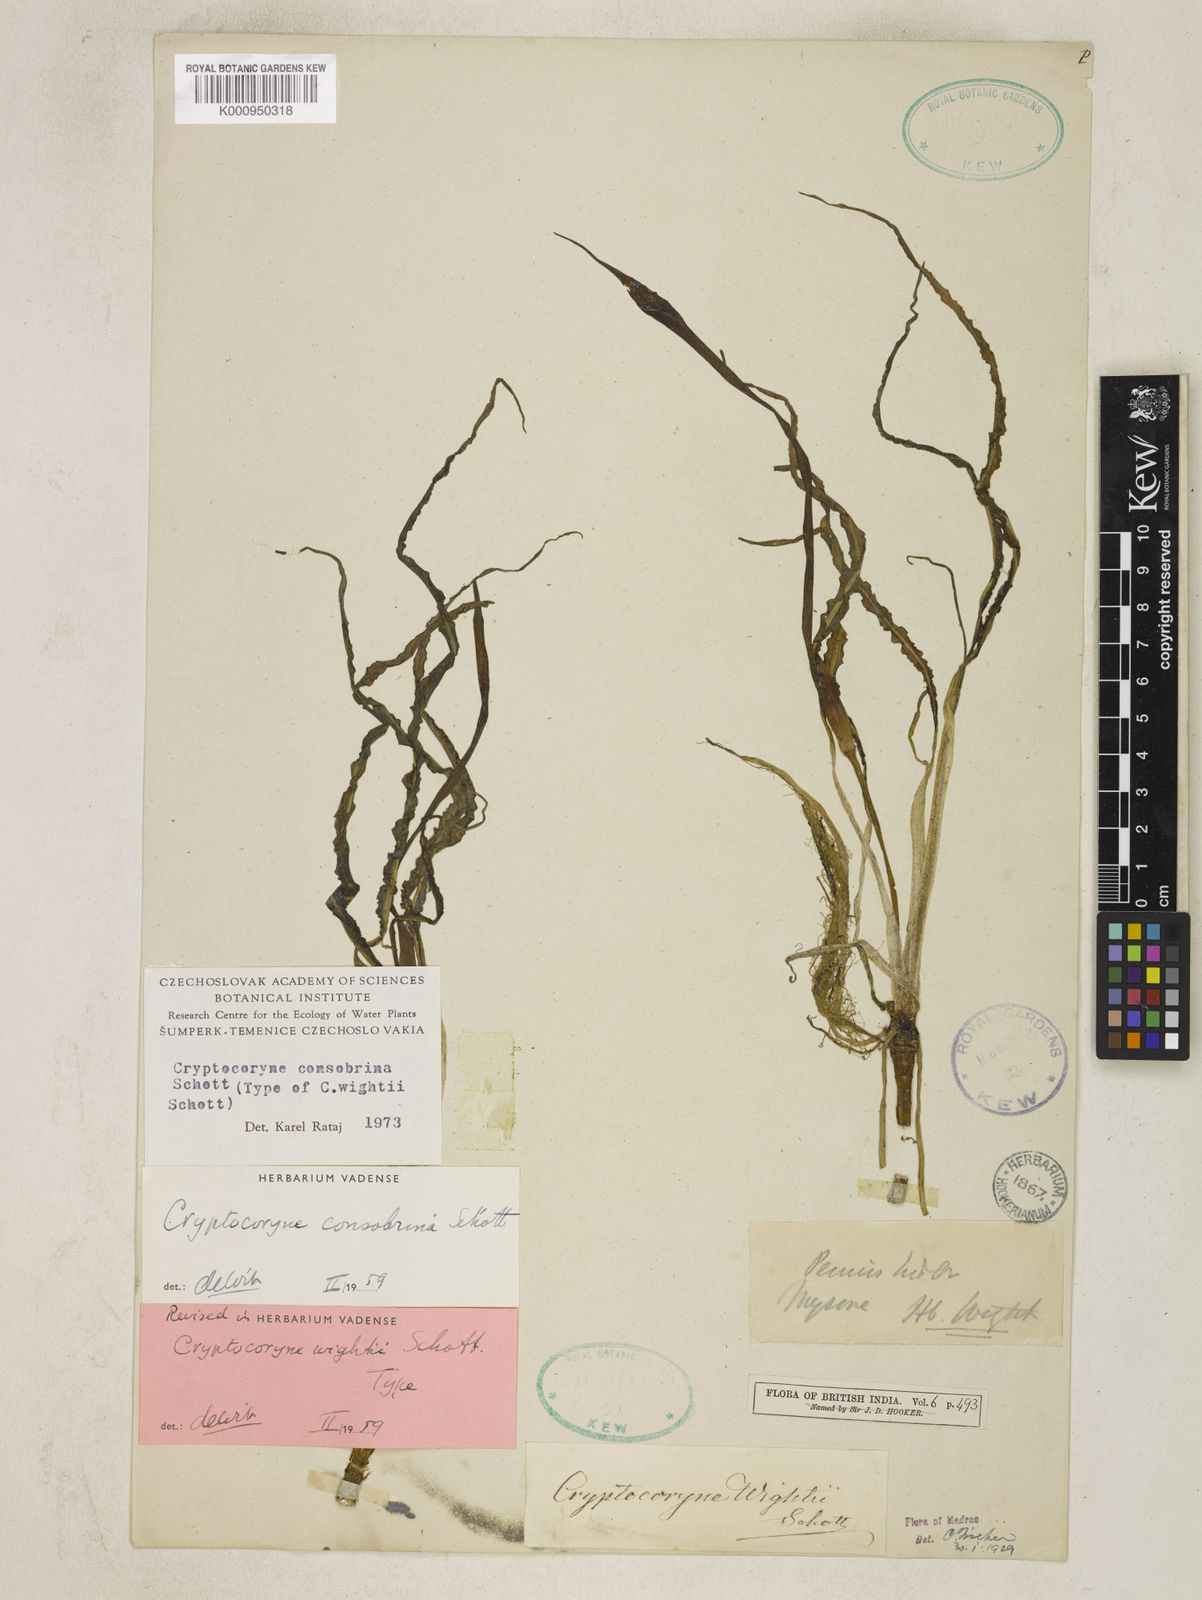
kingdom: Plantae
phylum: Tracheophyta
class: Liliopsida
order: Alismatales
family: Araceae
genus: Cryptocoryne
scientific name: Cryptocoryne consobrina
